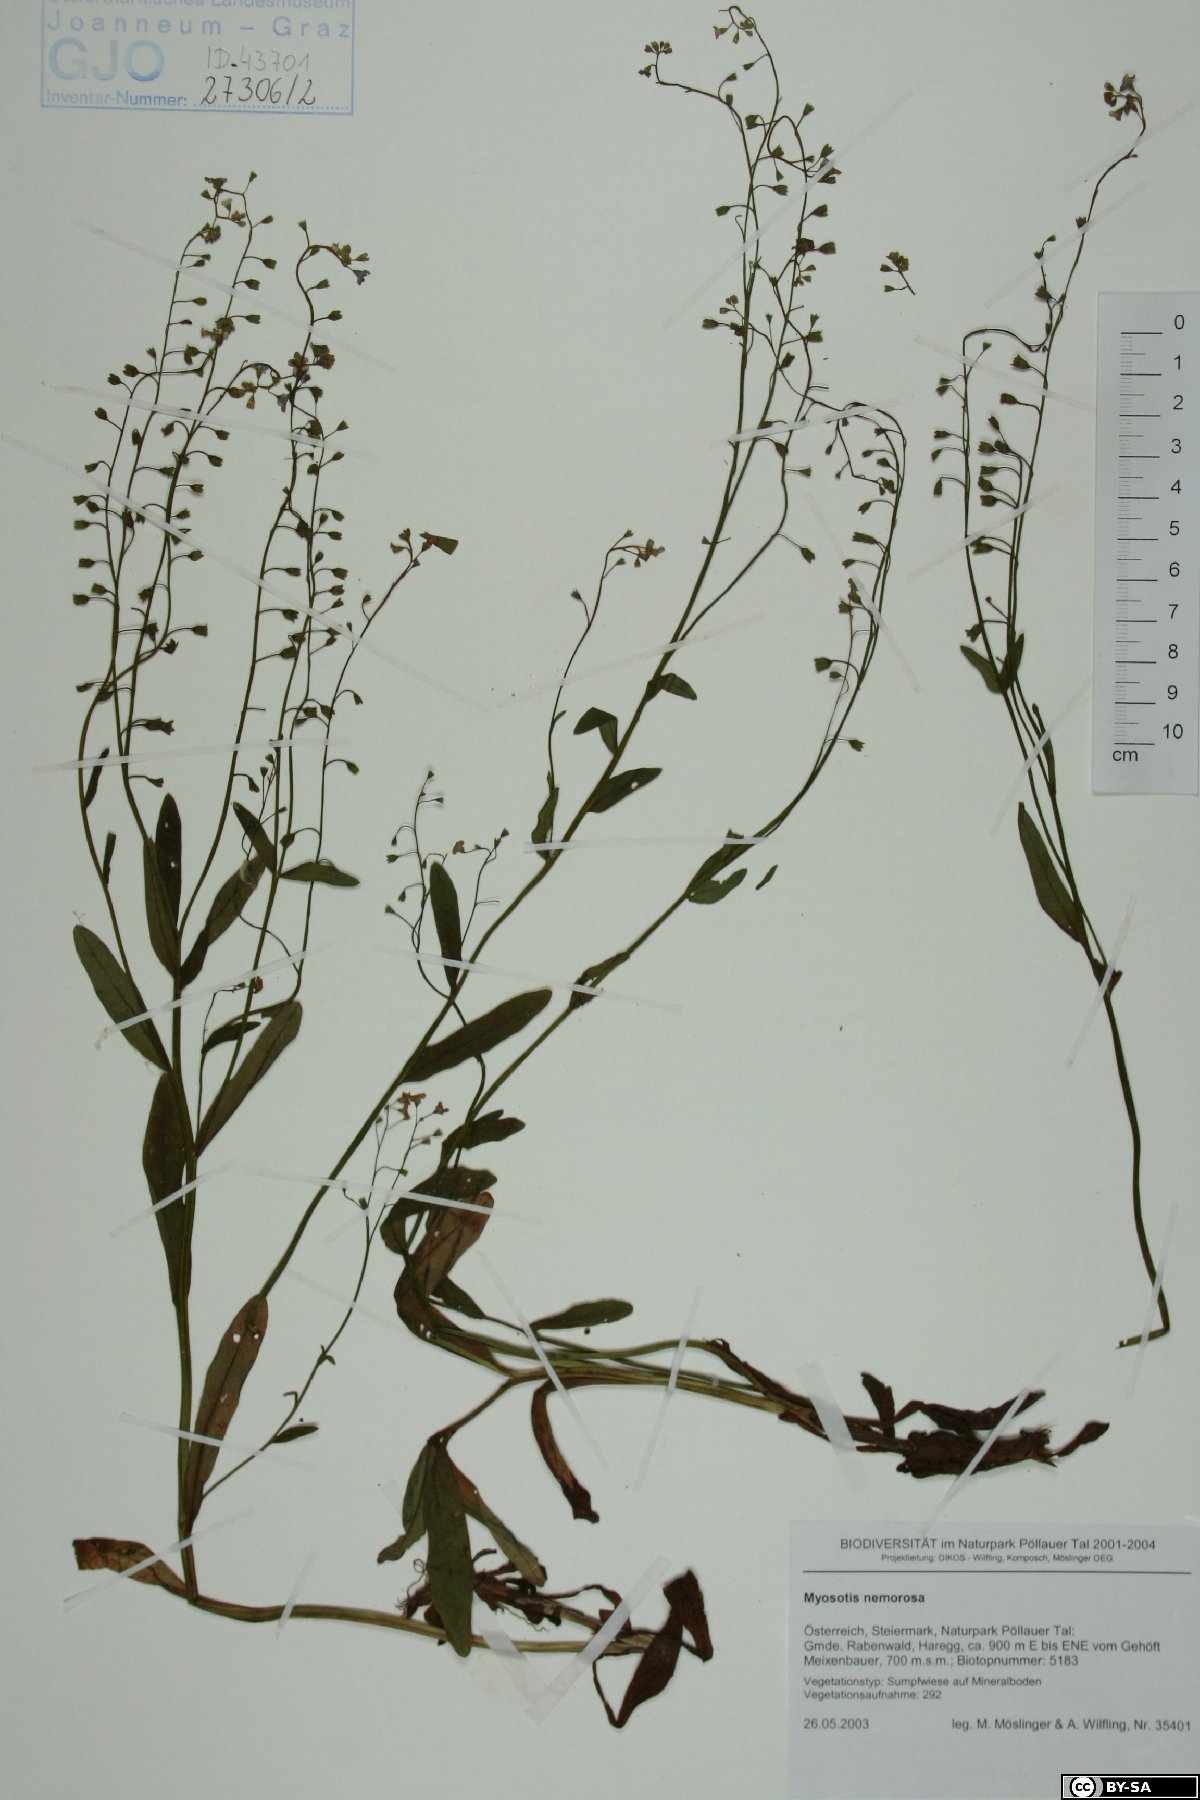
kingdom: Plantae
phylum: Tracheophyta
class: Magnoliopsida
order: Boraginales
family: Boraginaceae
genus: Myosotis
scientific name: Myosotis nemorosa
